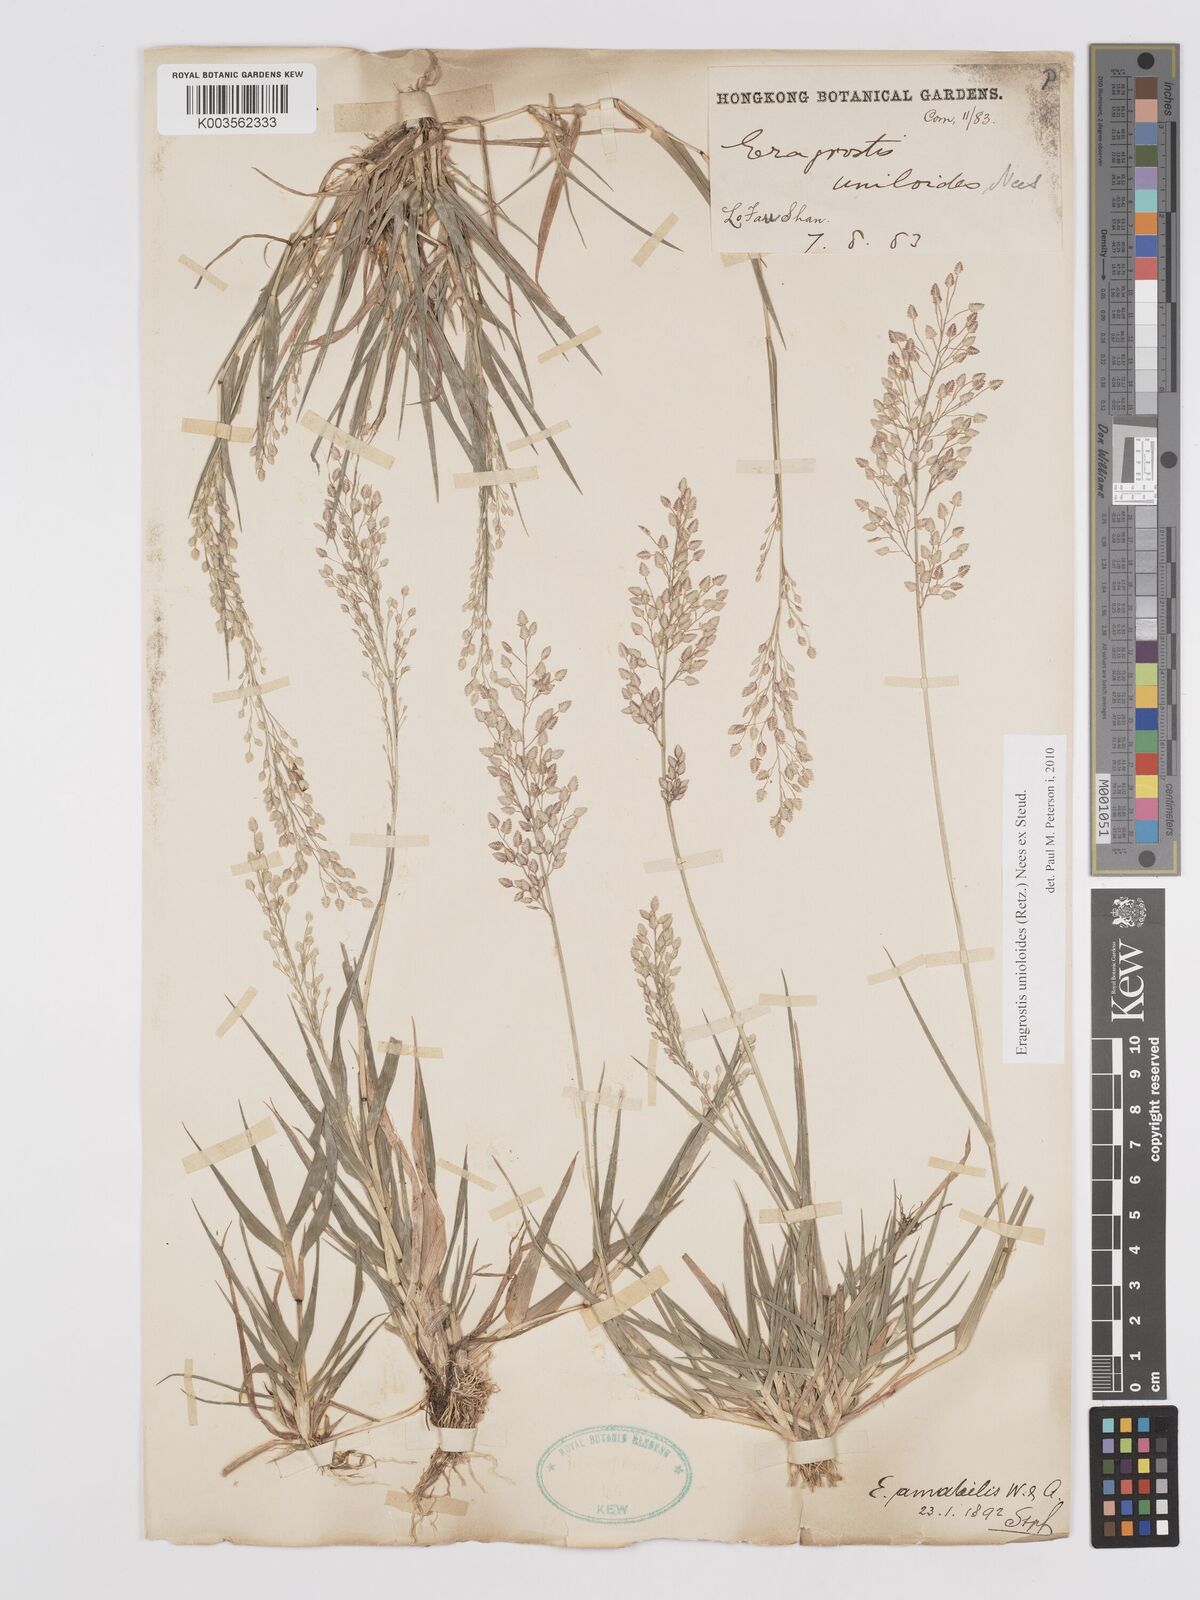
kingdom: Plantae
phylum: Tracheophyta
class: Liliopsida
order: Poales
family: Poaceae
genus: Eragrostis
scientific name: Eragrostis unioloides
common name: Chinese lovegrass
